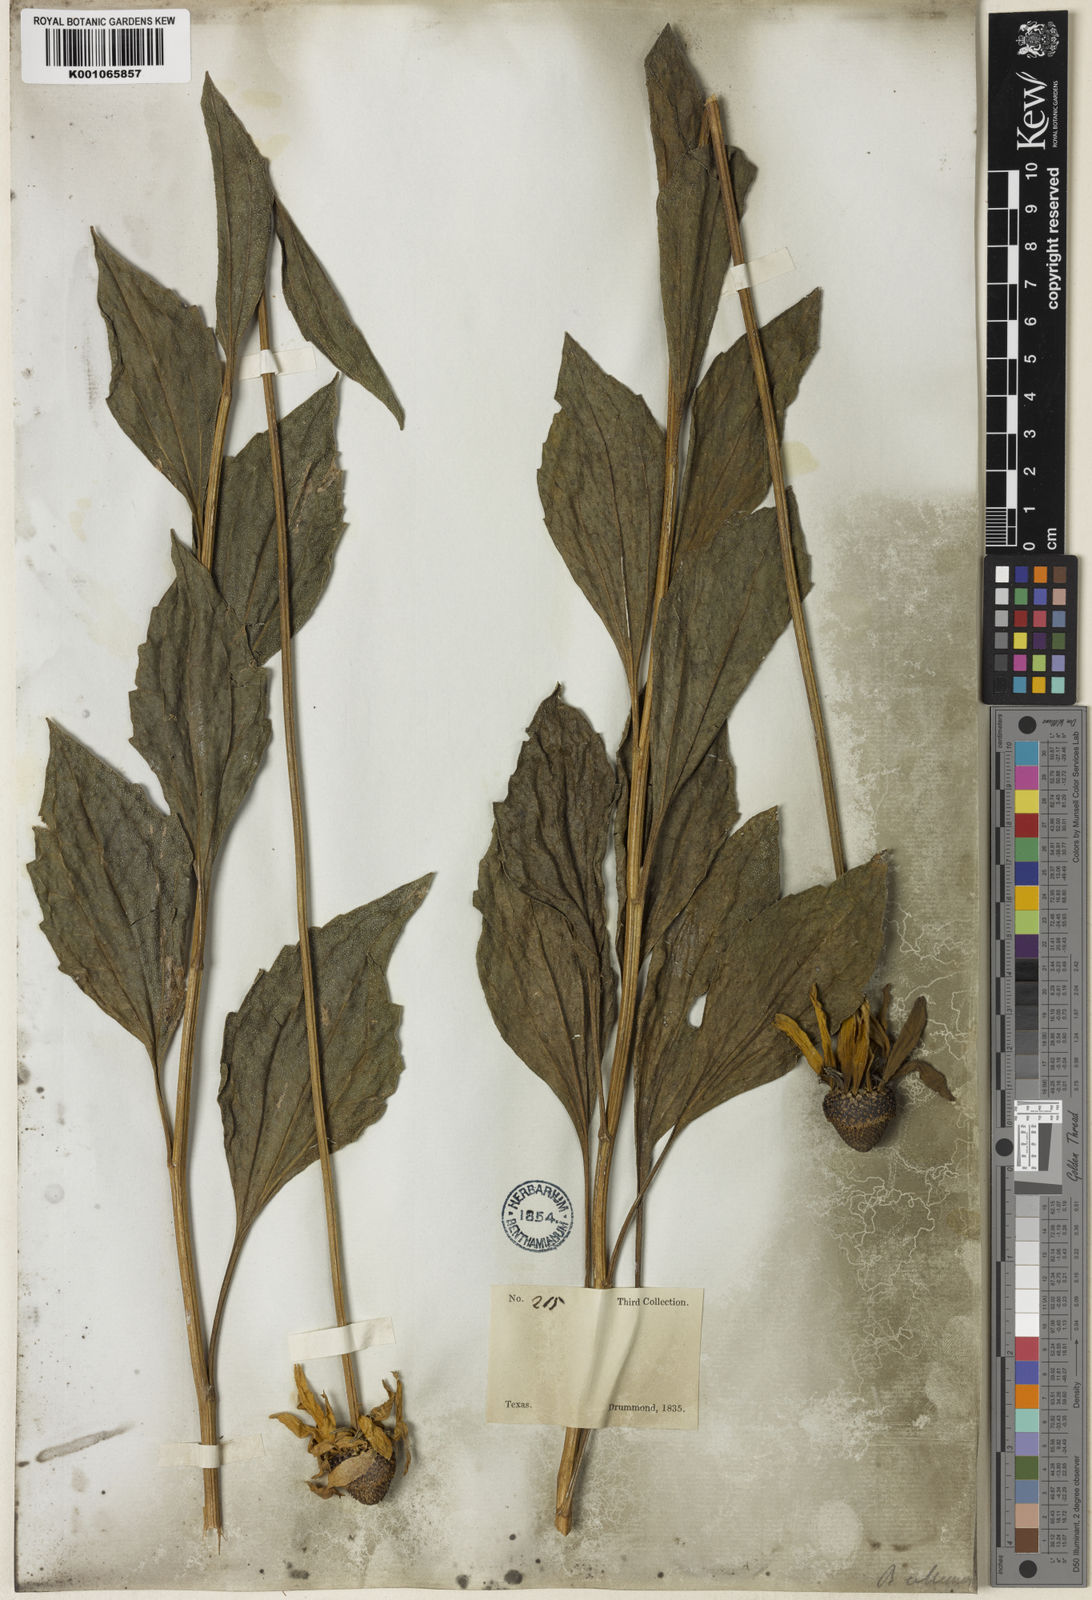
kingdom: Plantae
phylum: Tracheophyta
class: Magnoliopsida
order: Asterales
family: Asteraceae
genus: Rudbeckia
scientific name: Rudbeckia grandiflora
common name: Large-flowered coneflower
